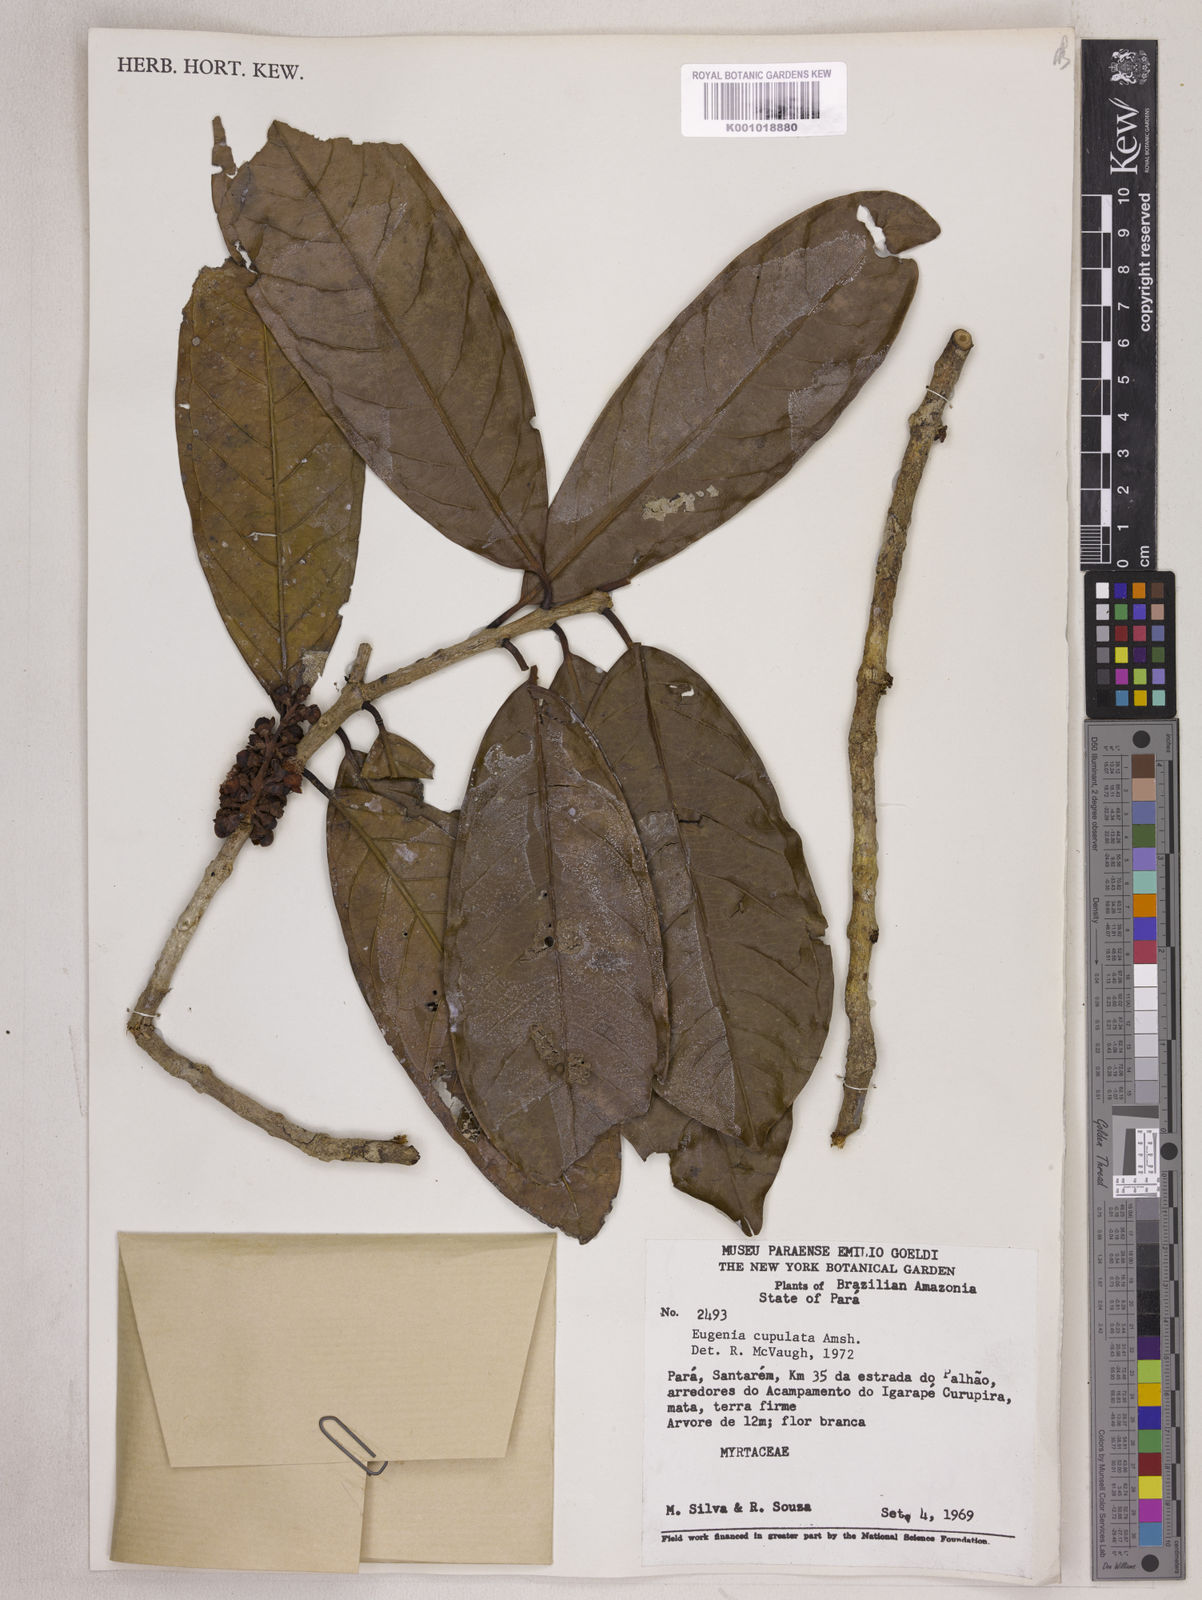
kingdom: Plantae
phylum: Tracheophyta
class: Magnoliopsida
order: Myrtales
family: Myrtaceae
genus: Eugenia
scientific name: Eugenia cupulata
